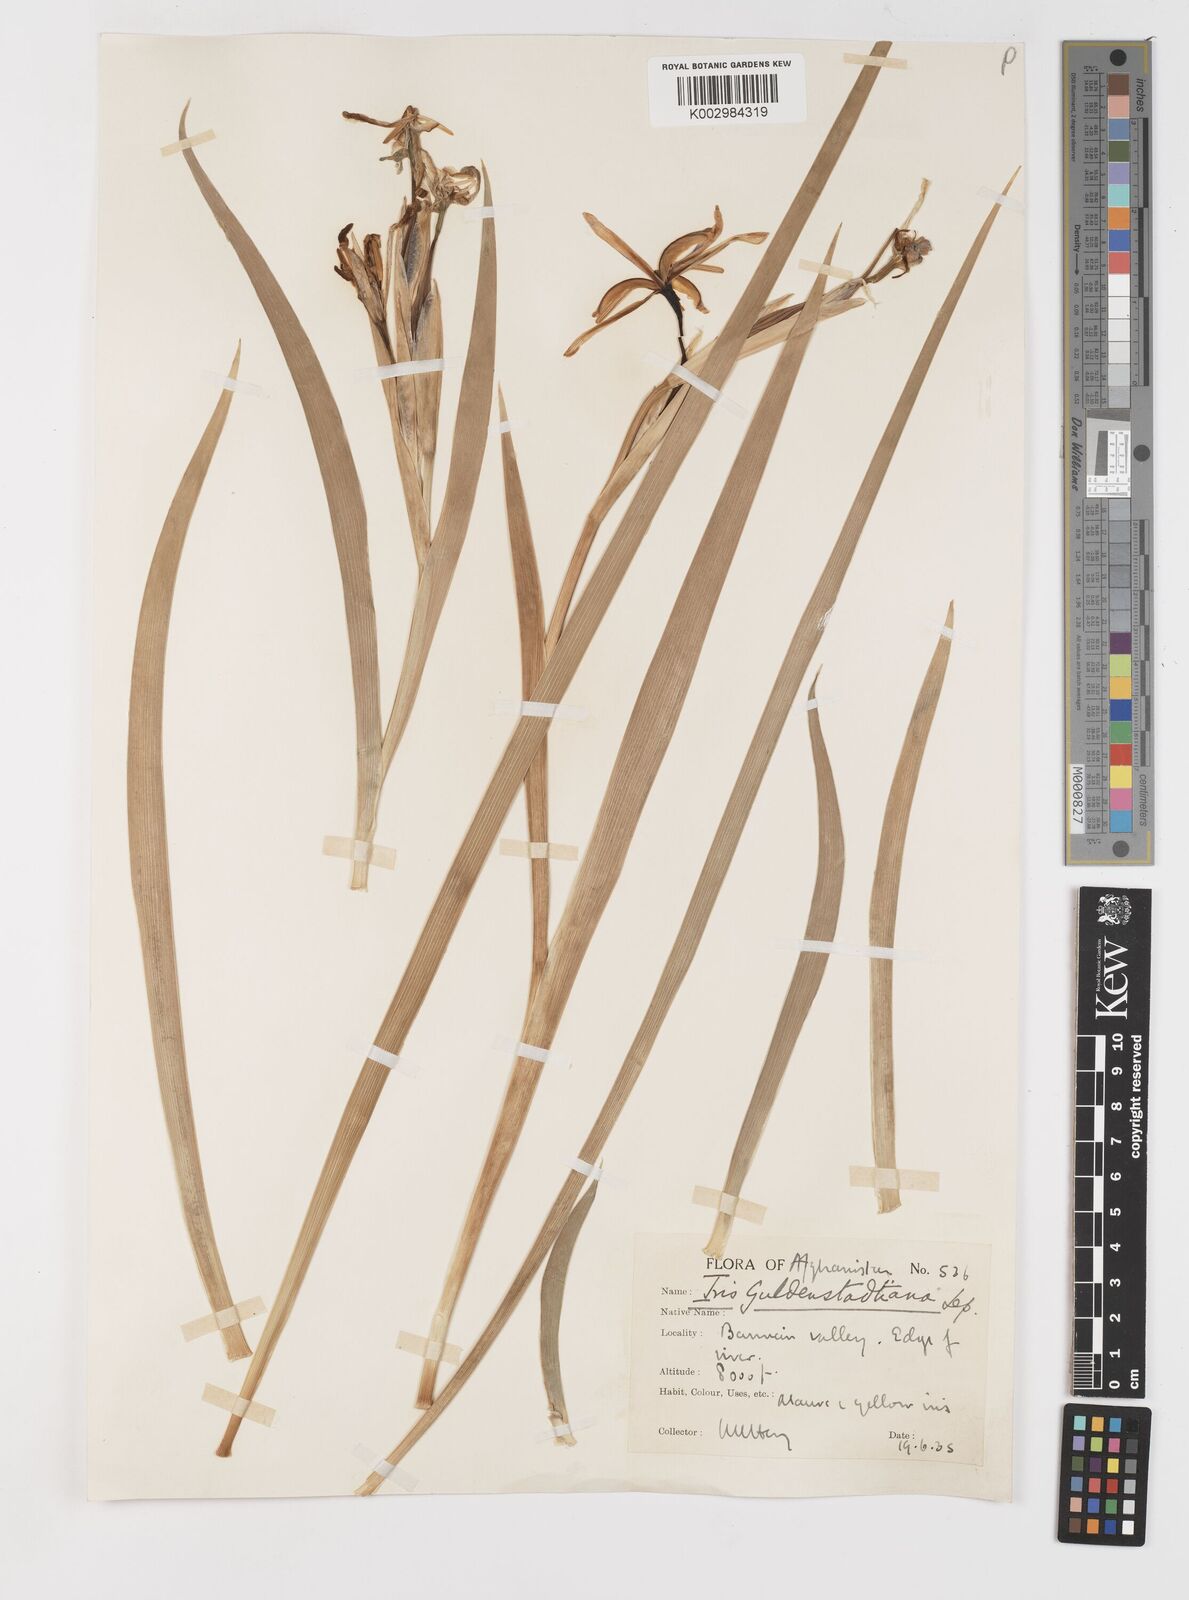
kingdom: Plantae
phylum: Tracheophyta
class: Liliopsida
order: Asparagales
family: Iridaceae
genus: Iris
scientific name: Iris spuria
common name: Blue iris
